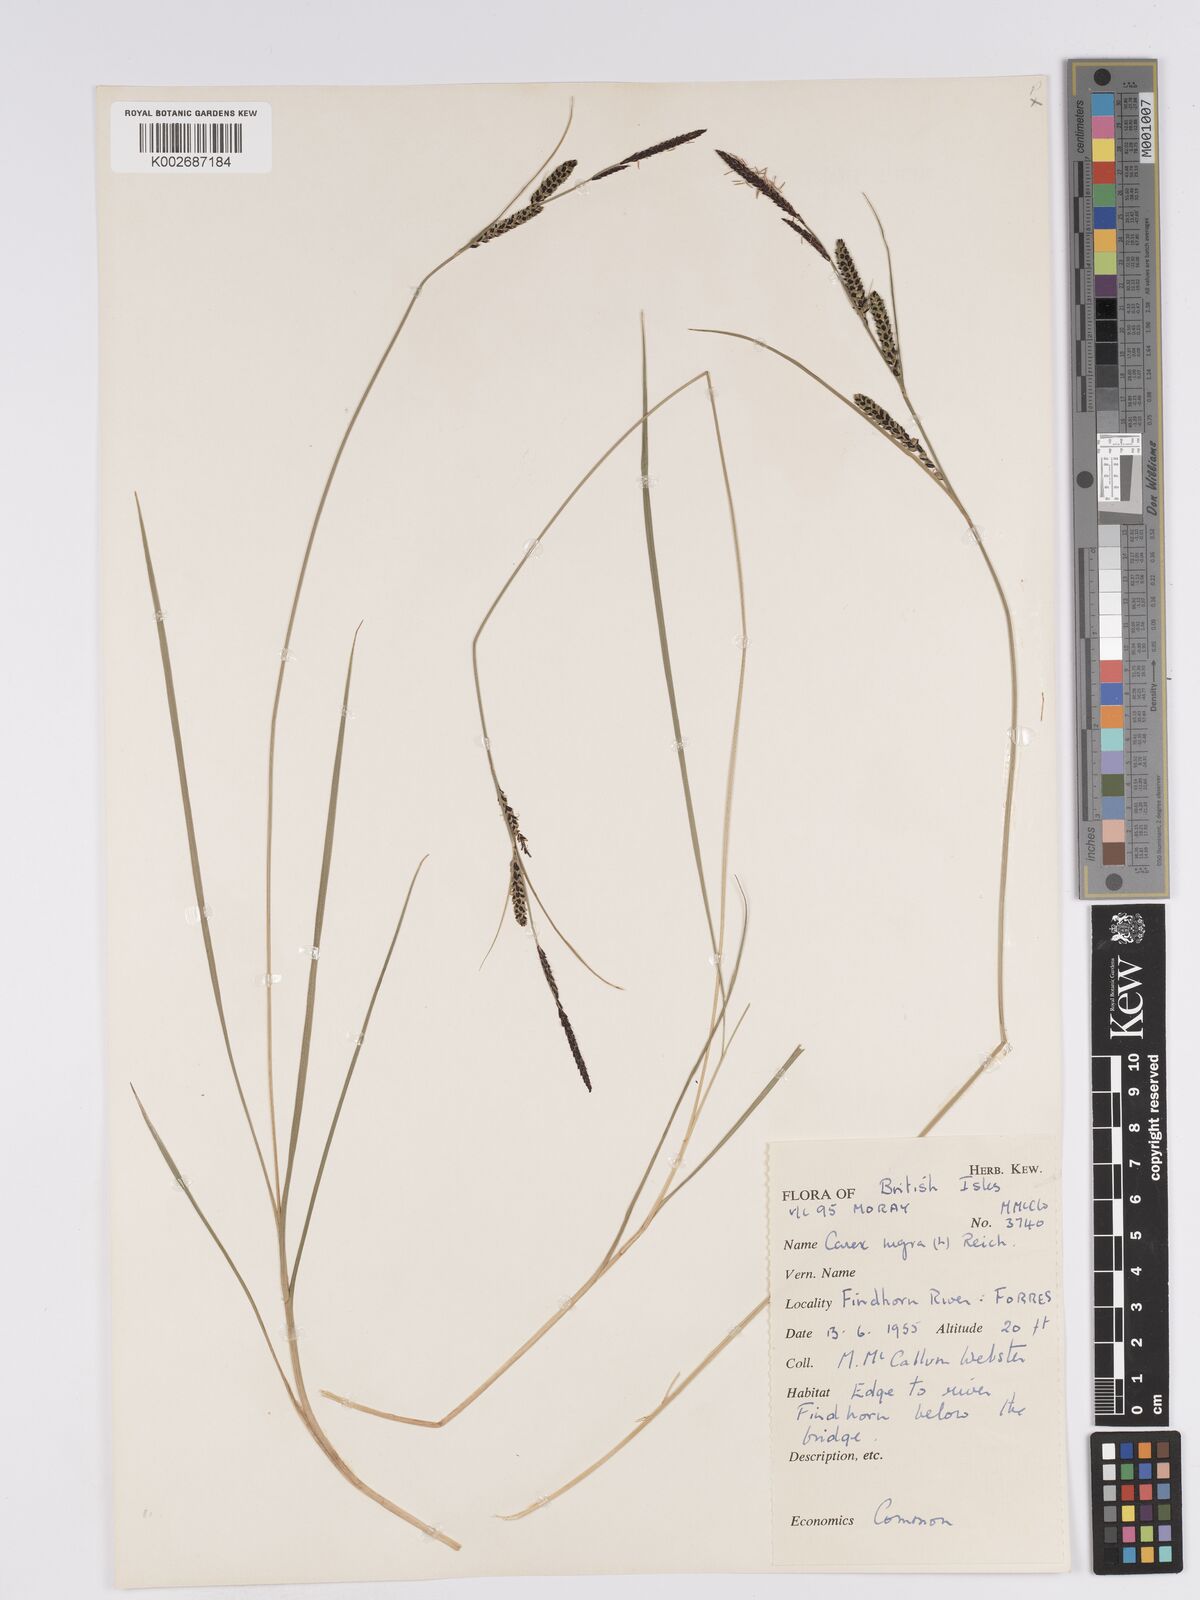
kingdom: Plantae
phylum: Tracheophyta
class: Liliopsida
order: Poales
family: Cyperaceae
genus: Carex
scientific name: Carex nigra
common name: Common sedge
